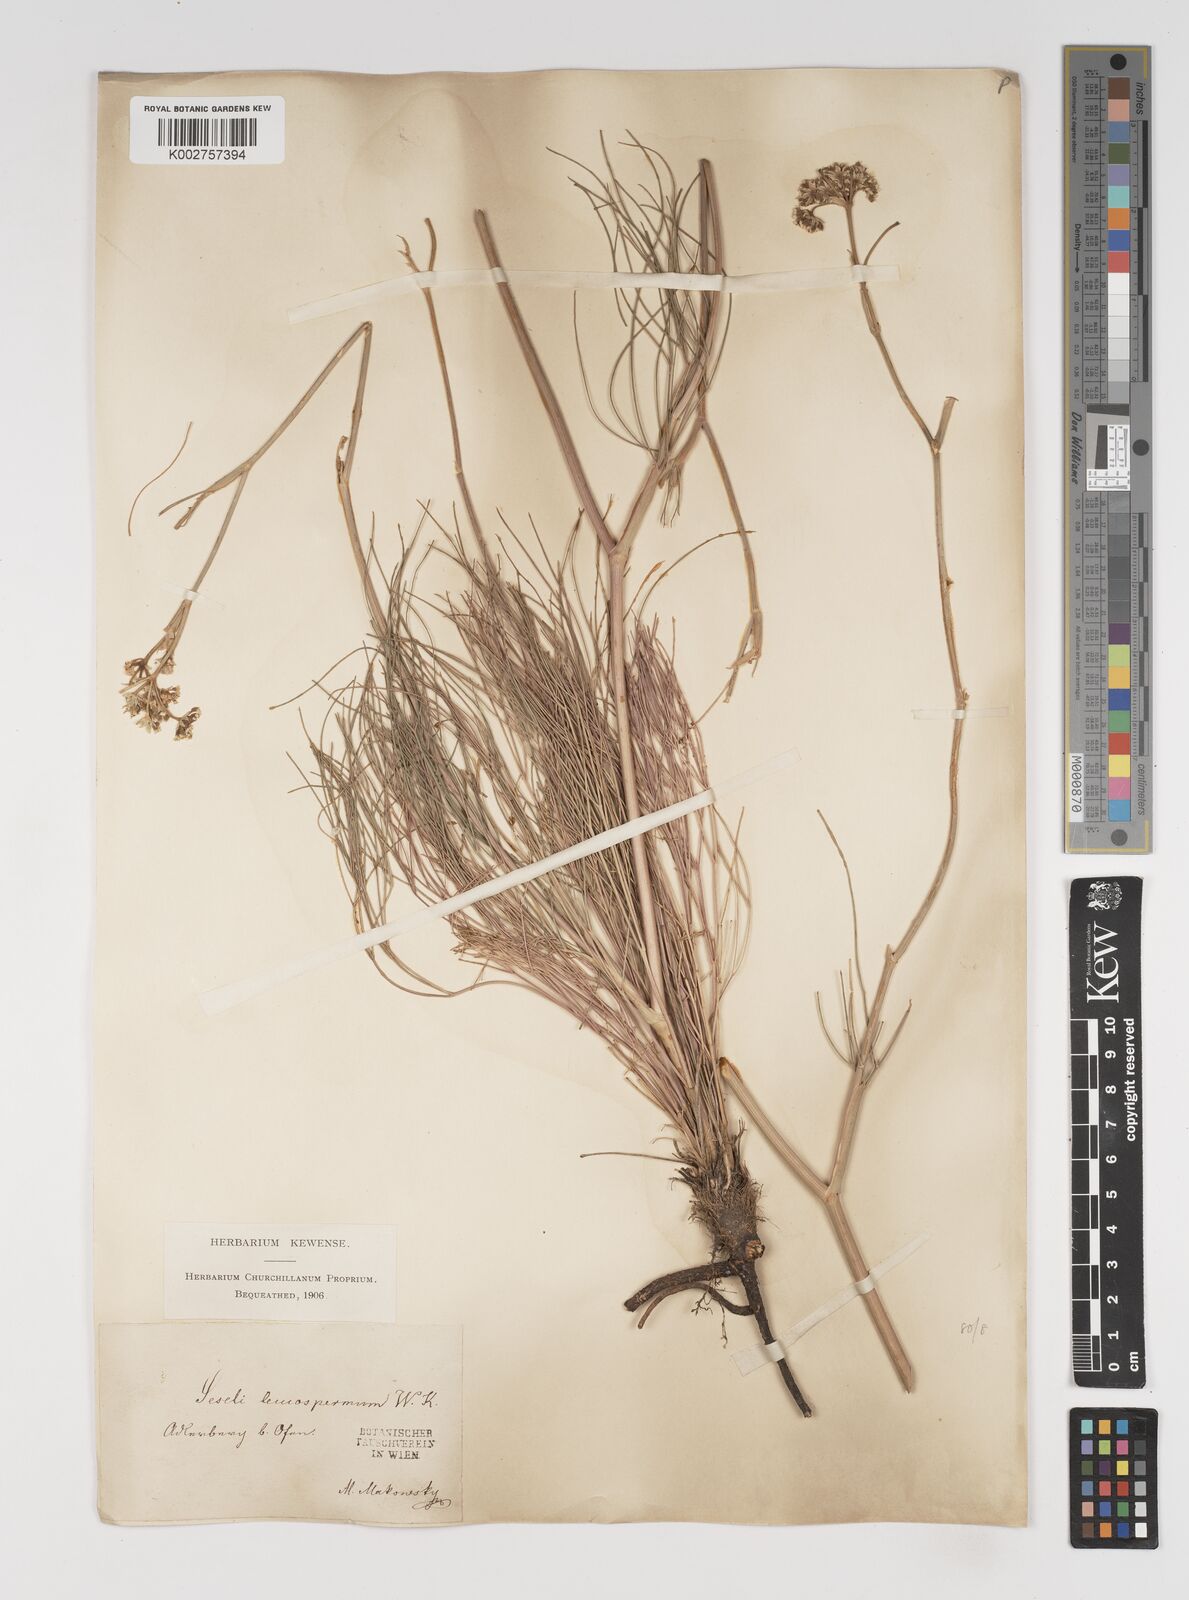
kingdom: Plantae
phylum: Tracheophyta
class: Magnoliopsida
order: Apiales
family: Apiaceae
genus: Seseli
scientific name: Seseli leucospermum
